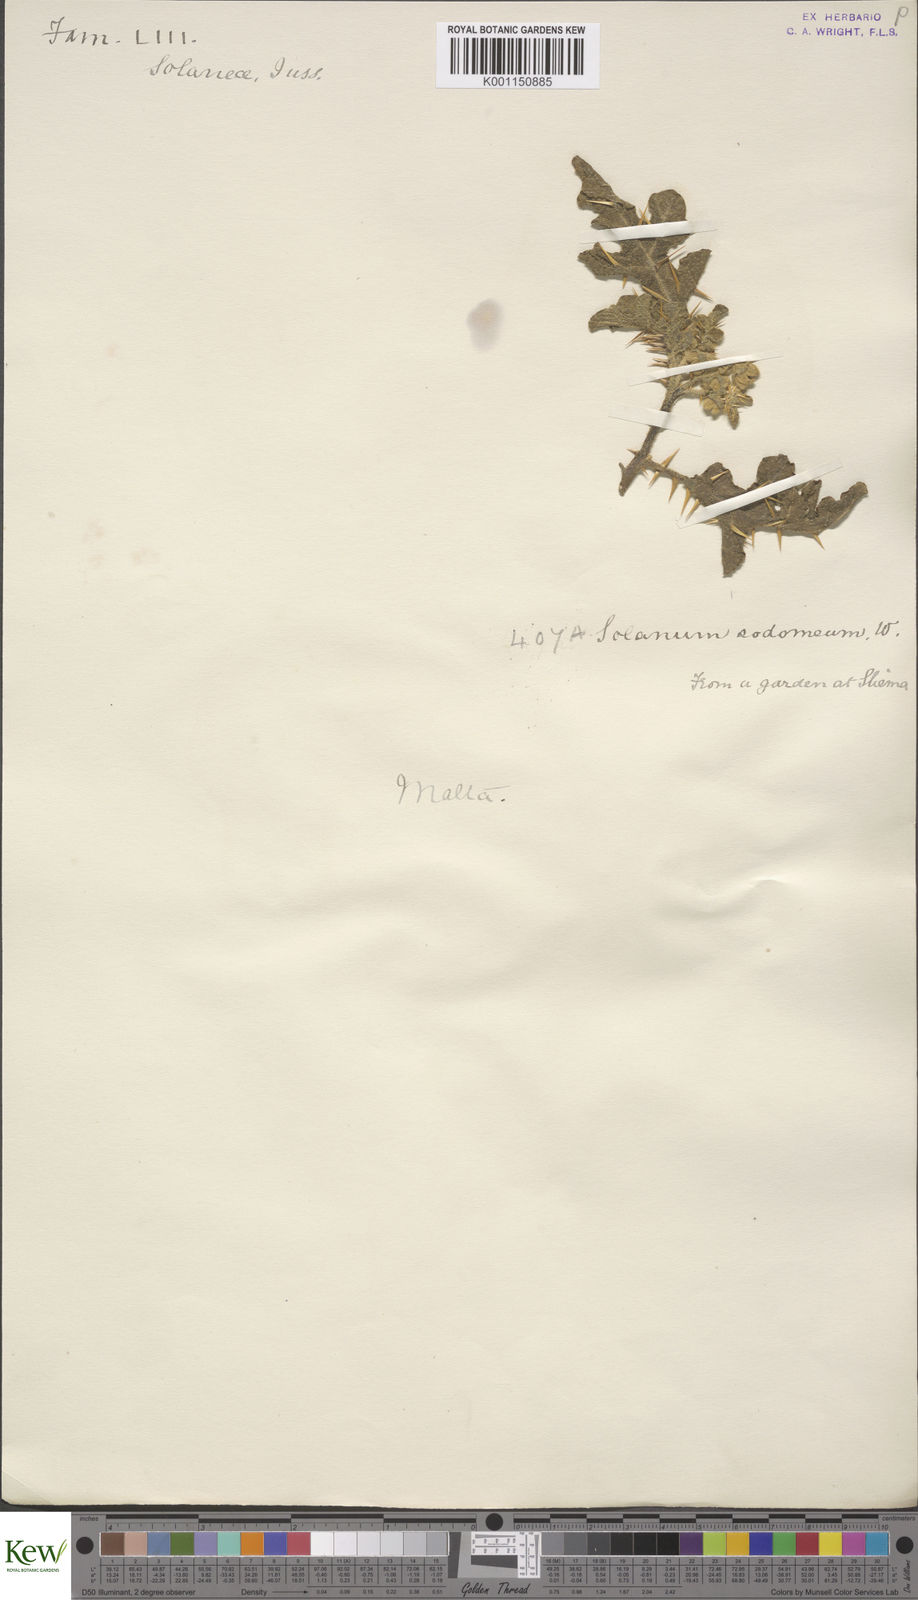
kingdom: Plantae
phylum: Tracheophyta
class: Magnoliopsida
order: Solanales
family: Solanaceae
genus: Solanum
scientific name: Solanum anguivi
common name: Forest bitterberry
